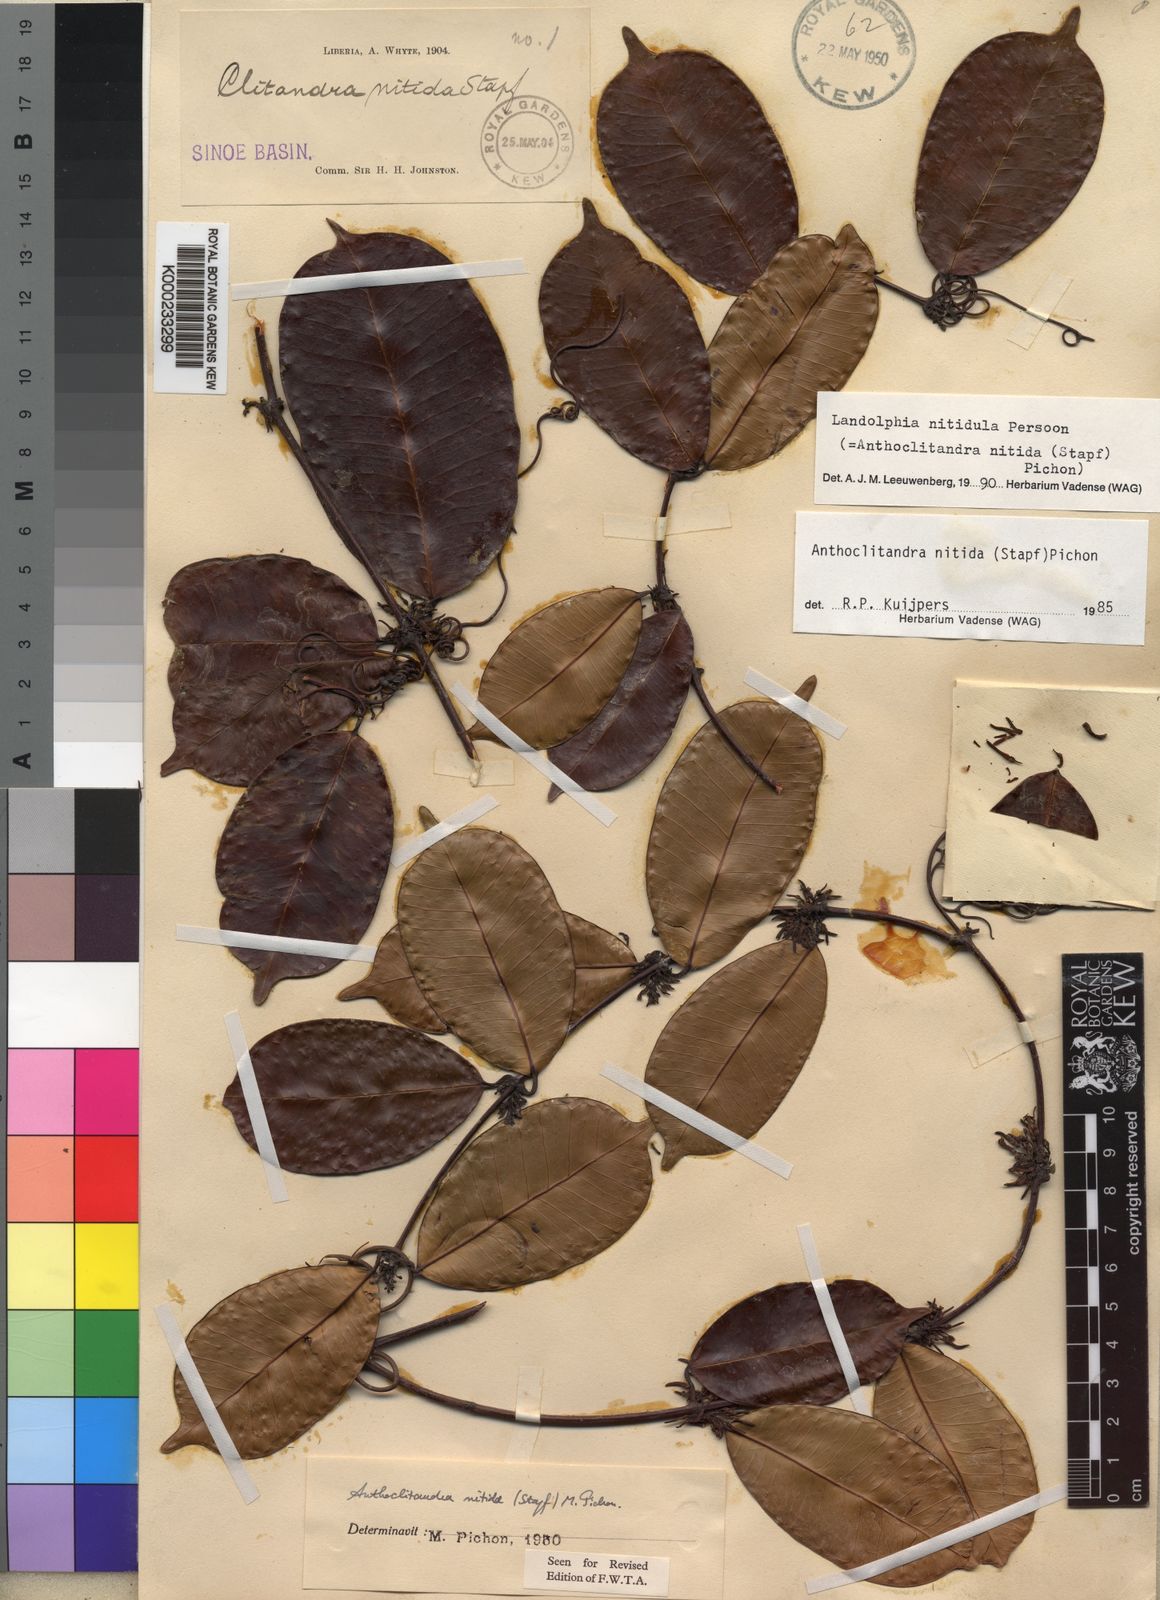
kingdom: Plantae
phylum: Tracheophyta
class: Magnoliopsida
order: Gentianales
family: Apocynaceae
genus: Landolphia
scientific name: Landolphia nitidula
